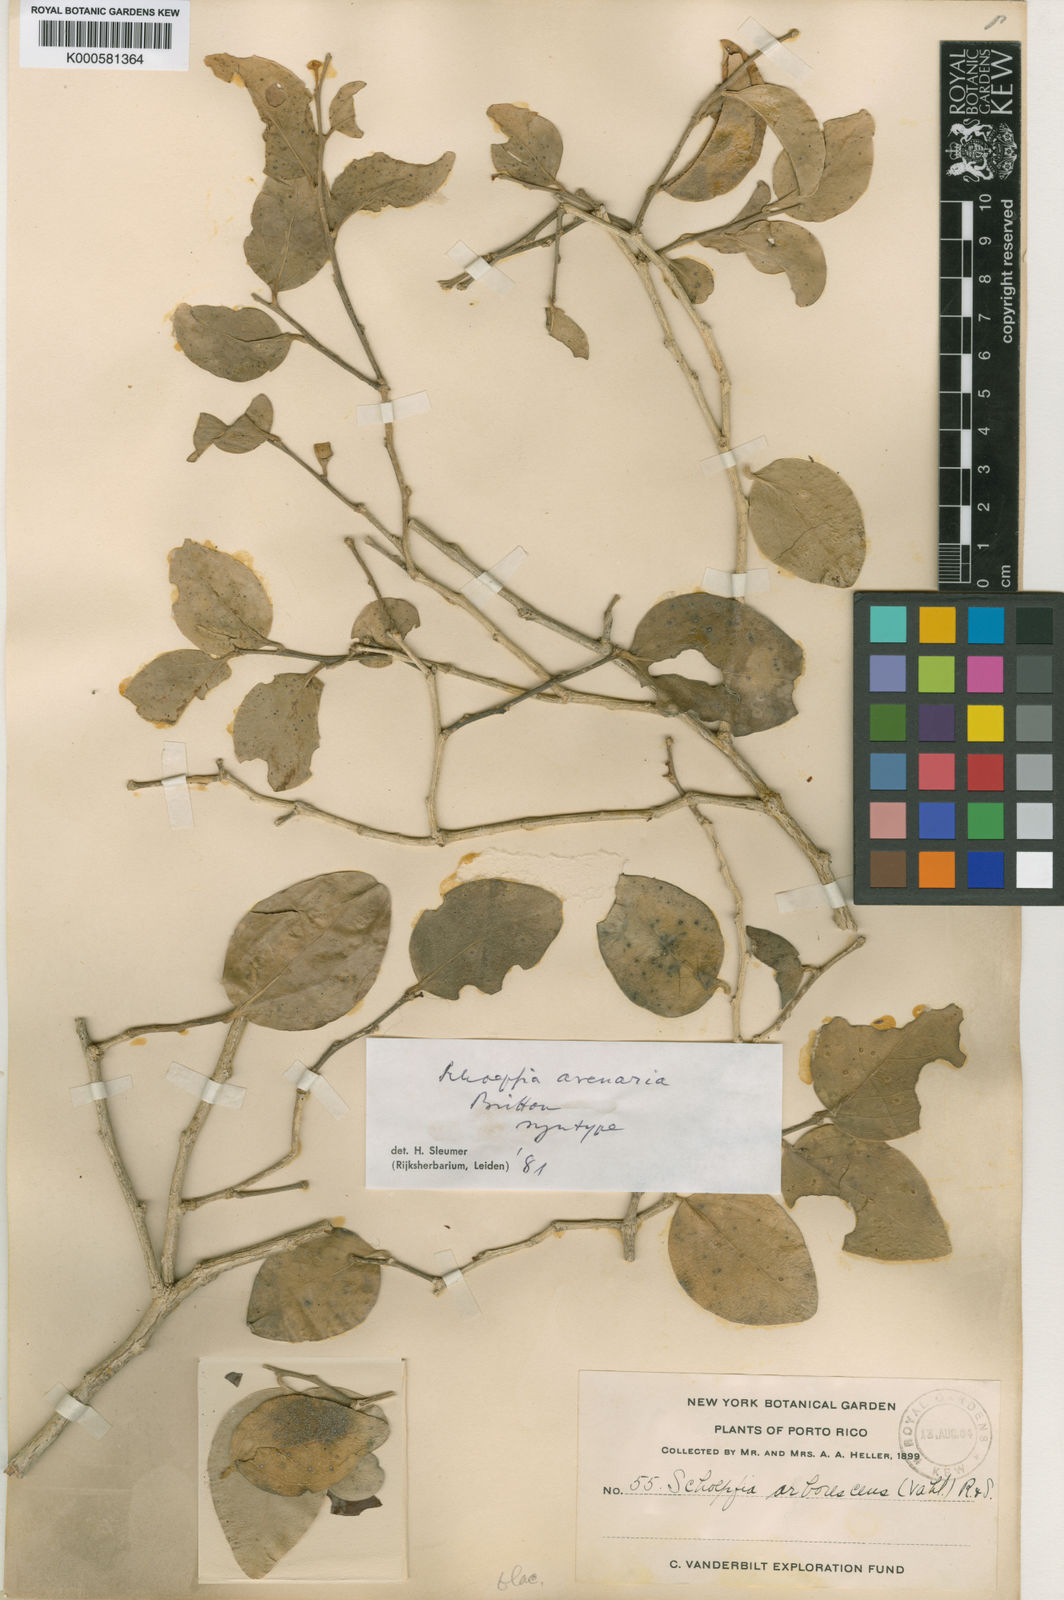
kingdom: Plantae
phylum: Tracheophyta
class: Magnoliopsida
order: Santalales
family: Schoepfiaceae
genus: Schoepfia
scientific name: Schoepfia arenaria
